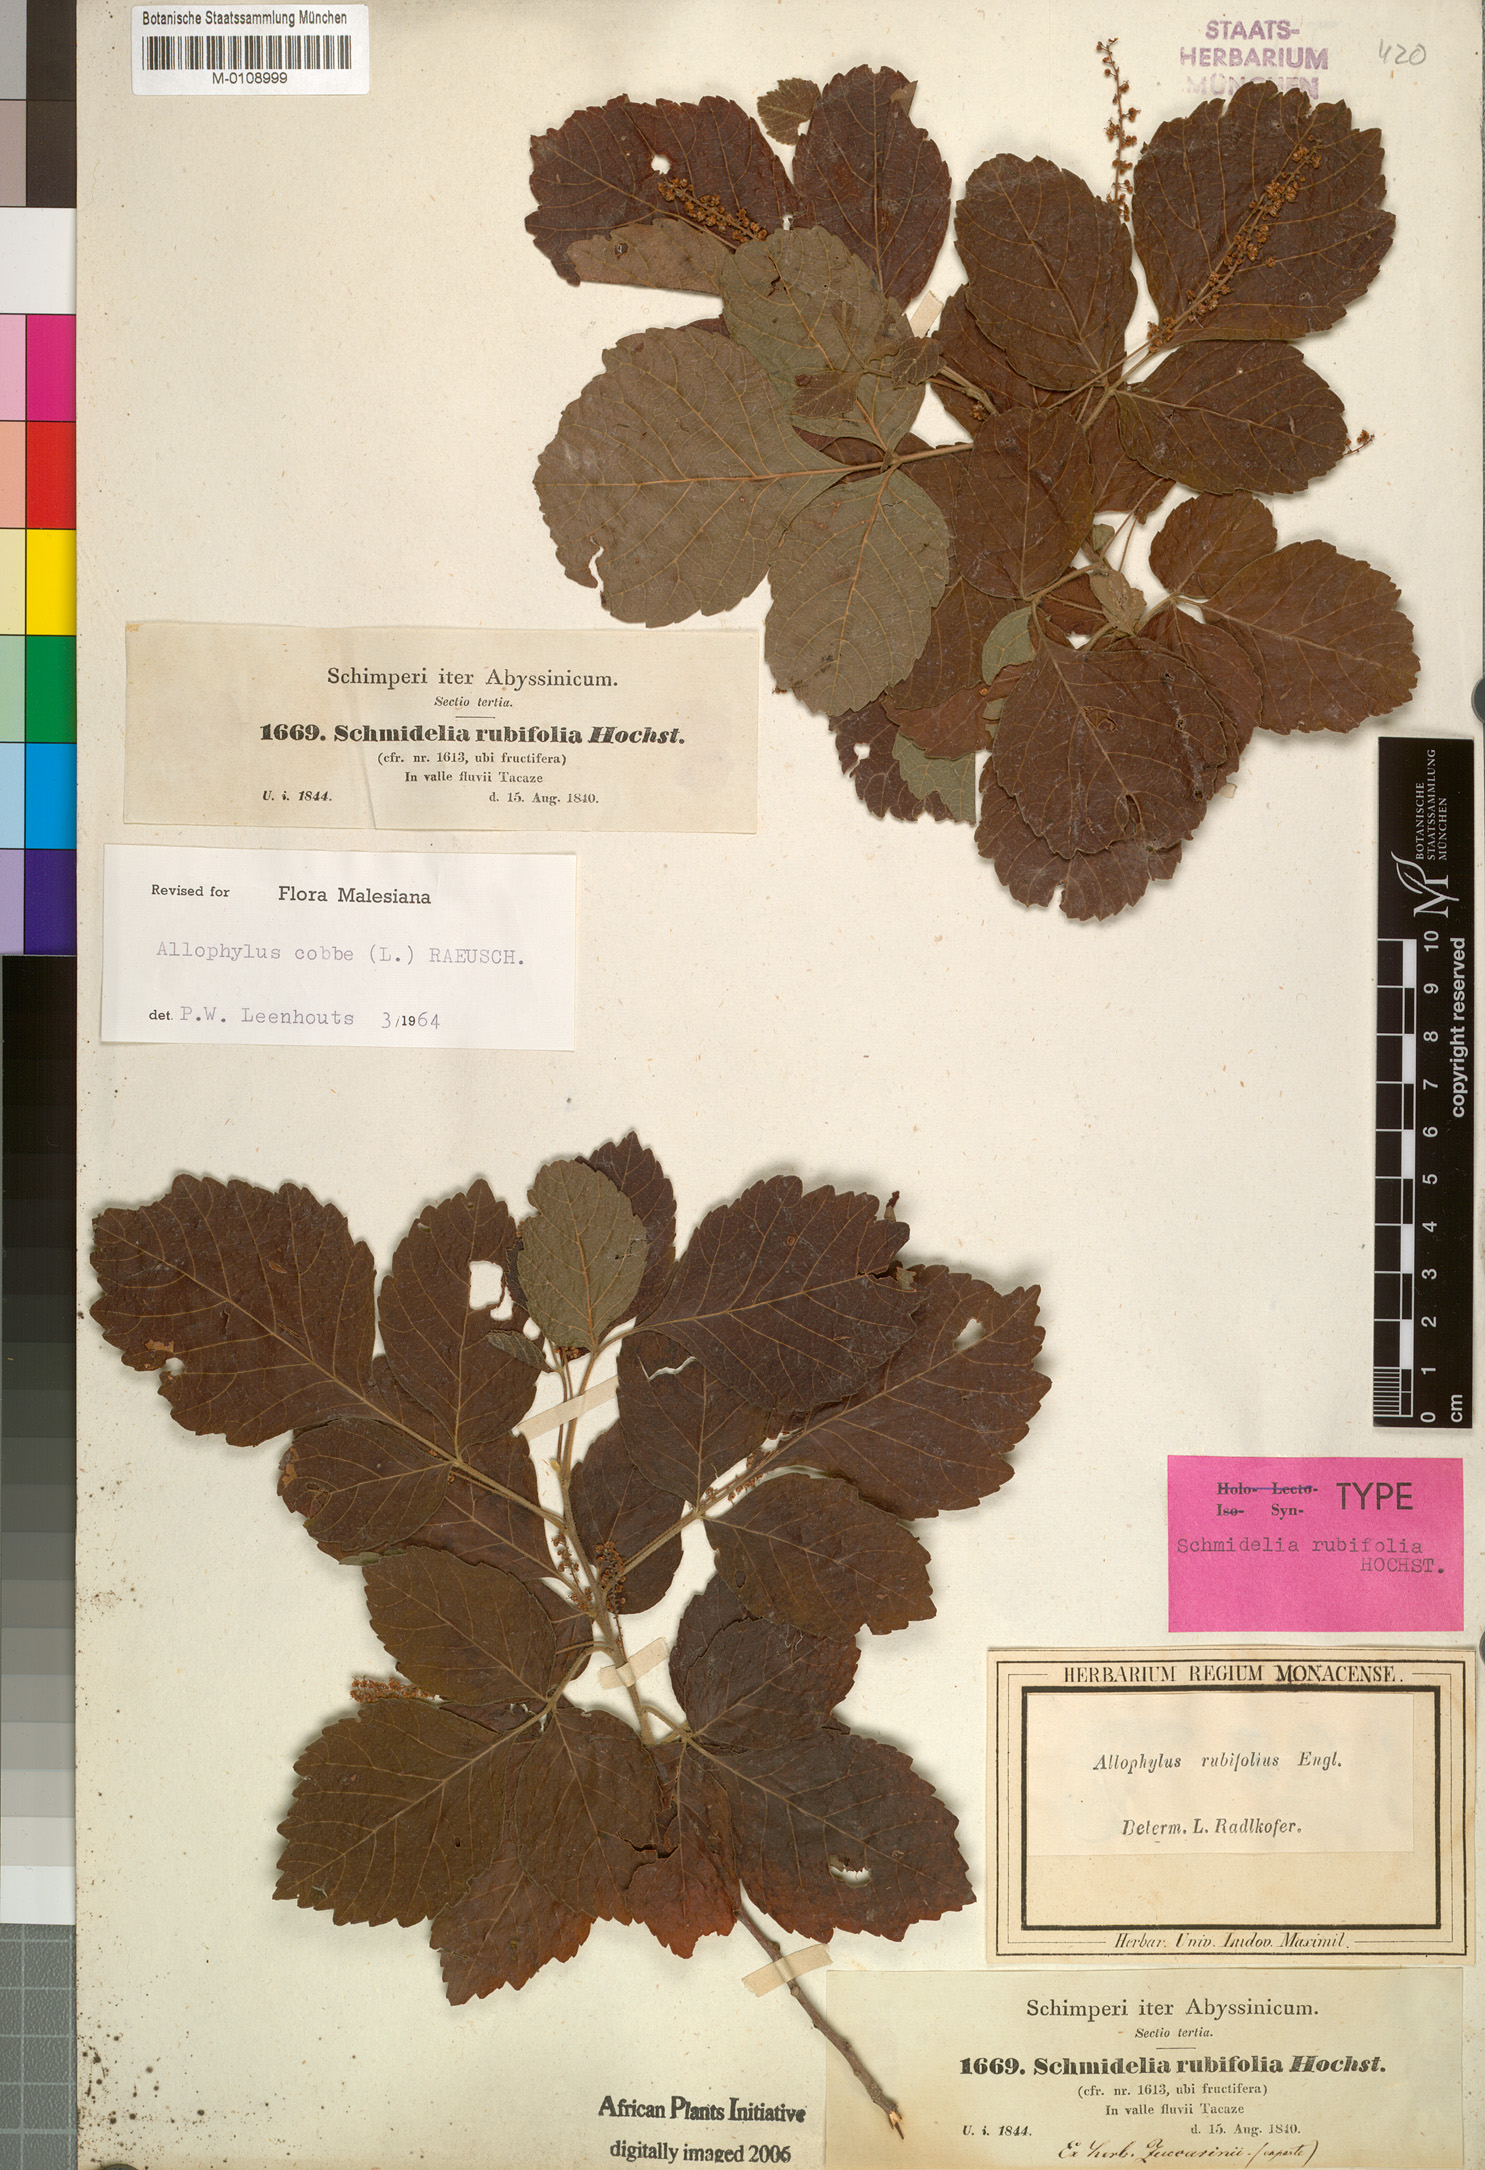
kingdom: Plantae
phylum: Tracheophyta
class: Magnoliopsida
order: Sapindales
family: Sapindaceae
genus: Allophylus
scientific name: Allophylus rubifolius
